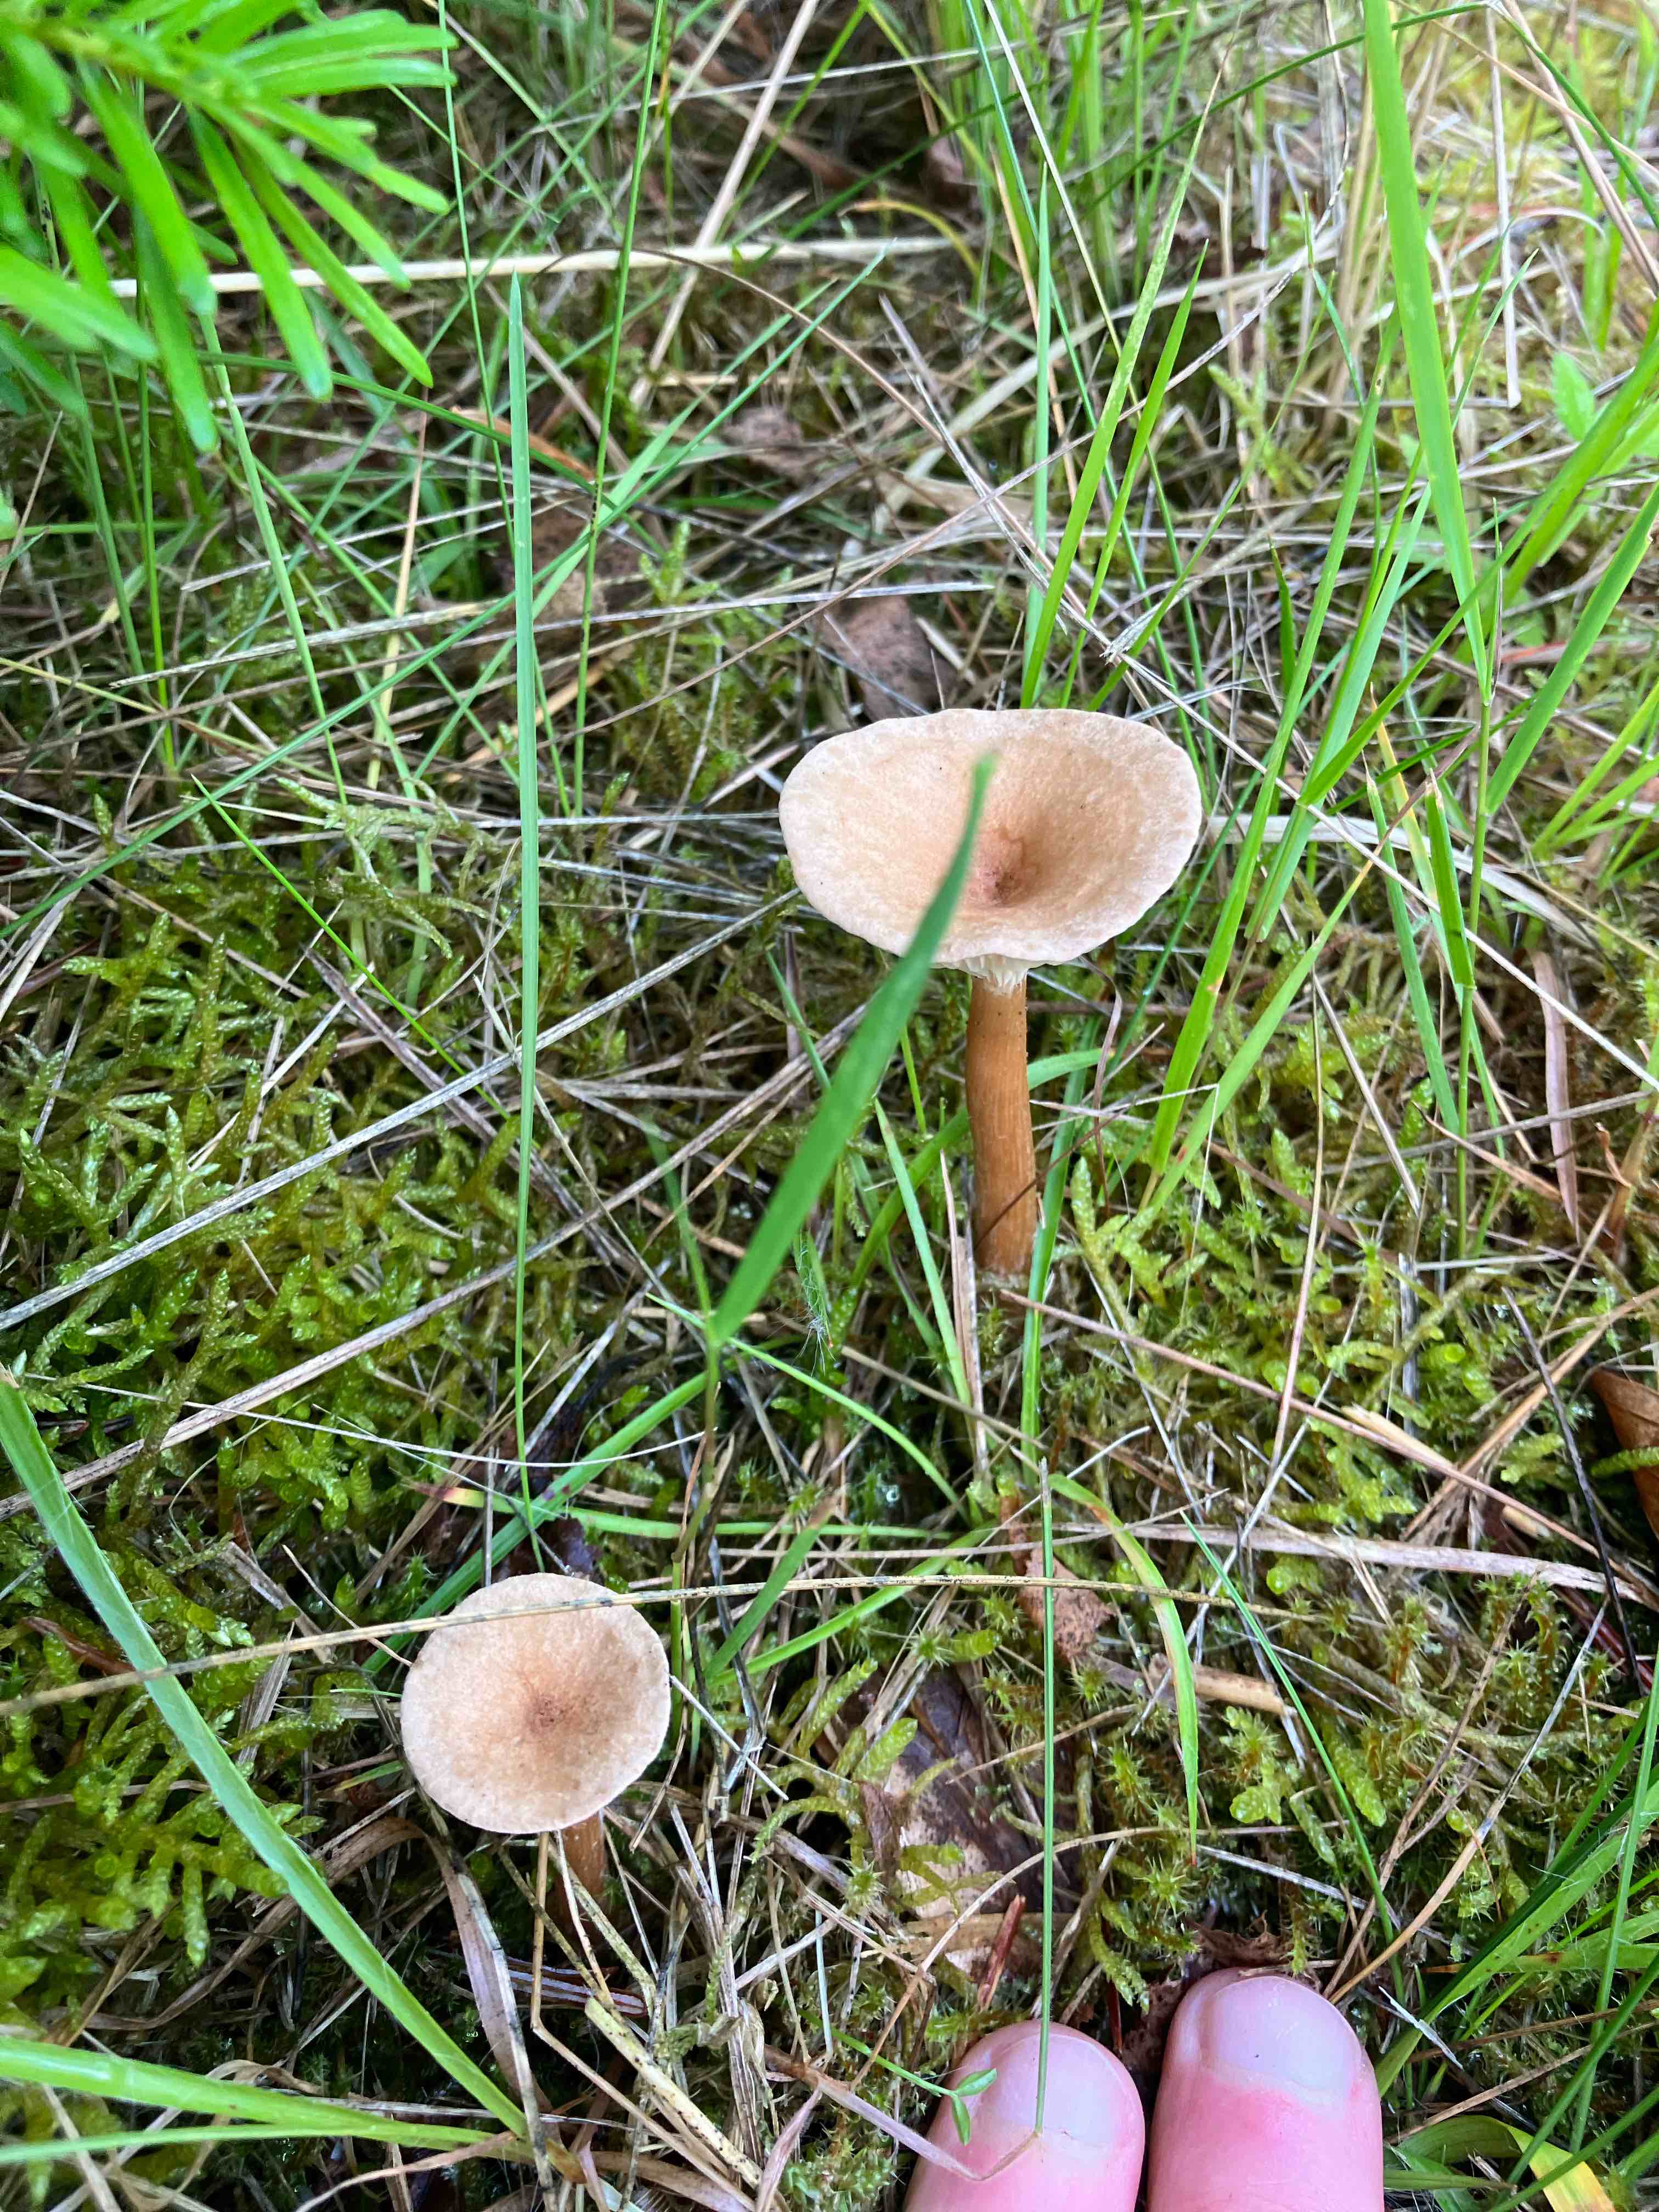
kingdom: Fungi
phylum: Basidiomycota
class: Agaricomycetes
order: Agaricales
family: Tricholomataceae
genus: Infundibulicybe
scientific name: Infundibulicybe
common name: tragthat
